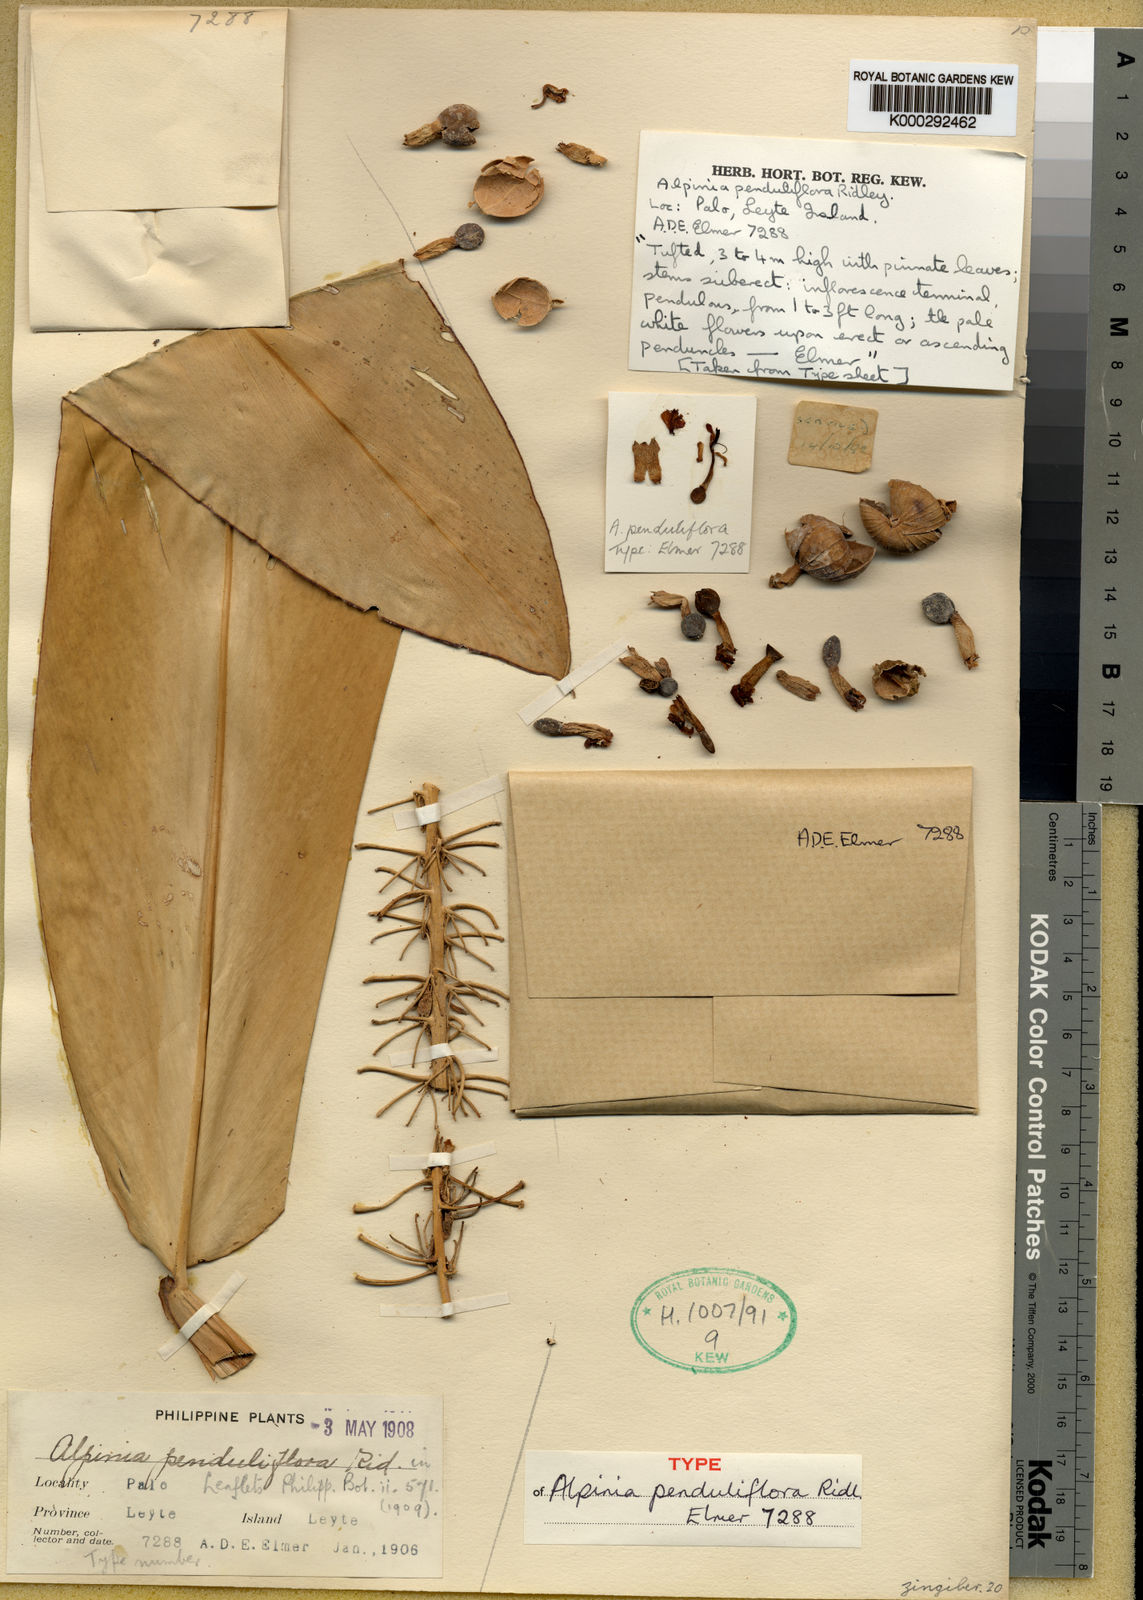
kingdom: Plantae
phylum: Tracheophyta
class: Liliopsida
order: Zingiberales
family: Zingiberaceae
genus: Alpinia
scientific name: Alpinia penduliflora
